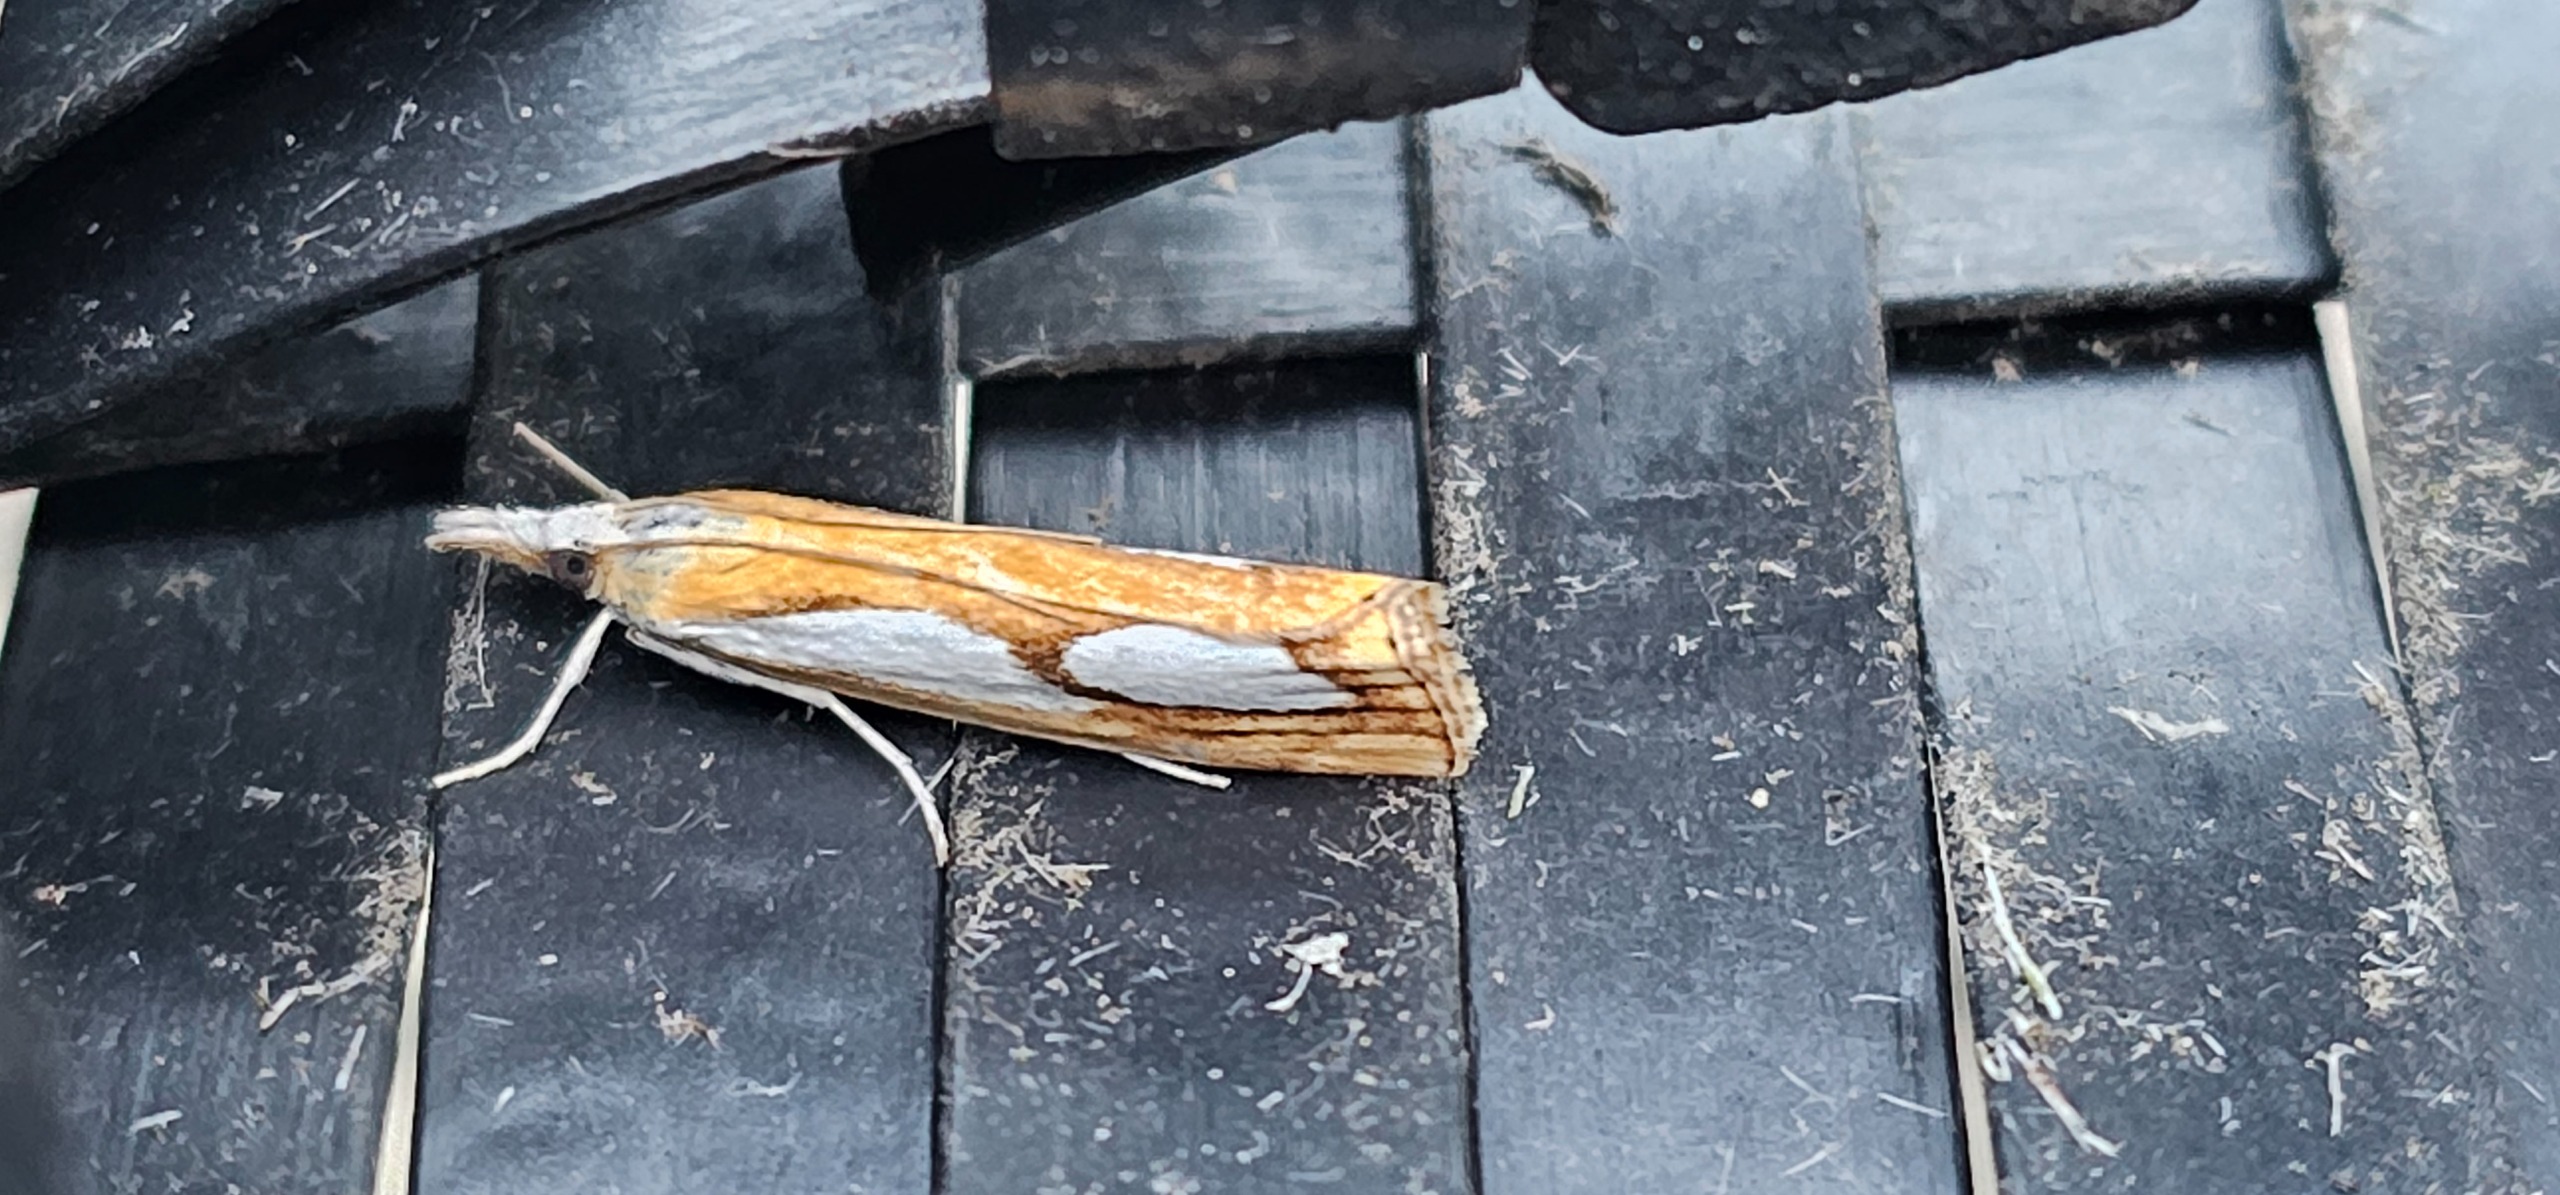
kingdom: Animalia
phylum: Arthropoda
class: Insecta
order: Lepidoptera
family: Crambidae
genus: Catoptria
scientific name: Catoptria pinella
